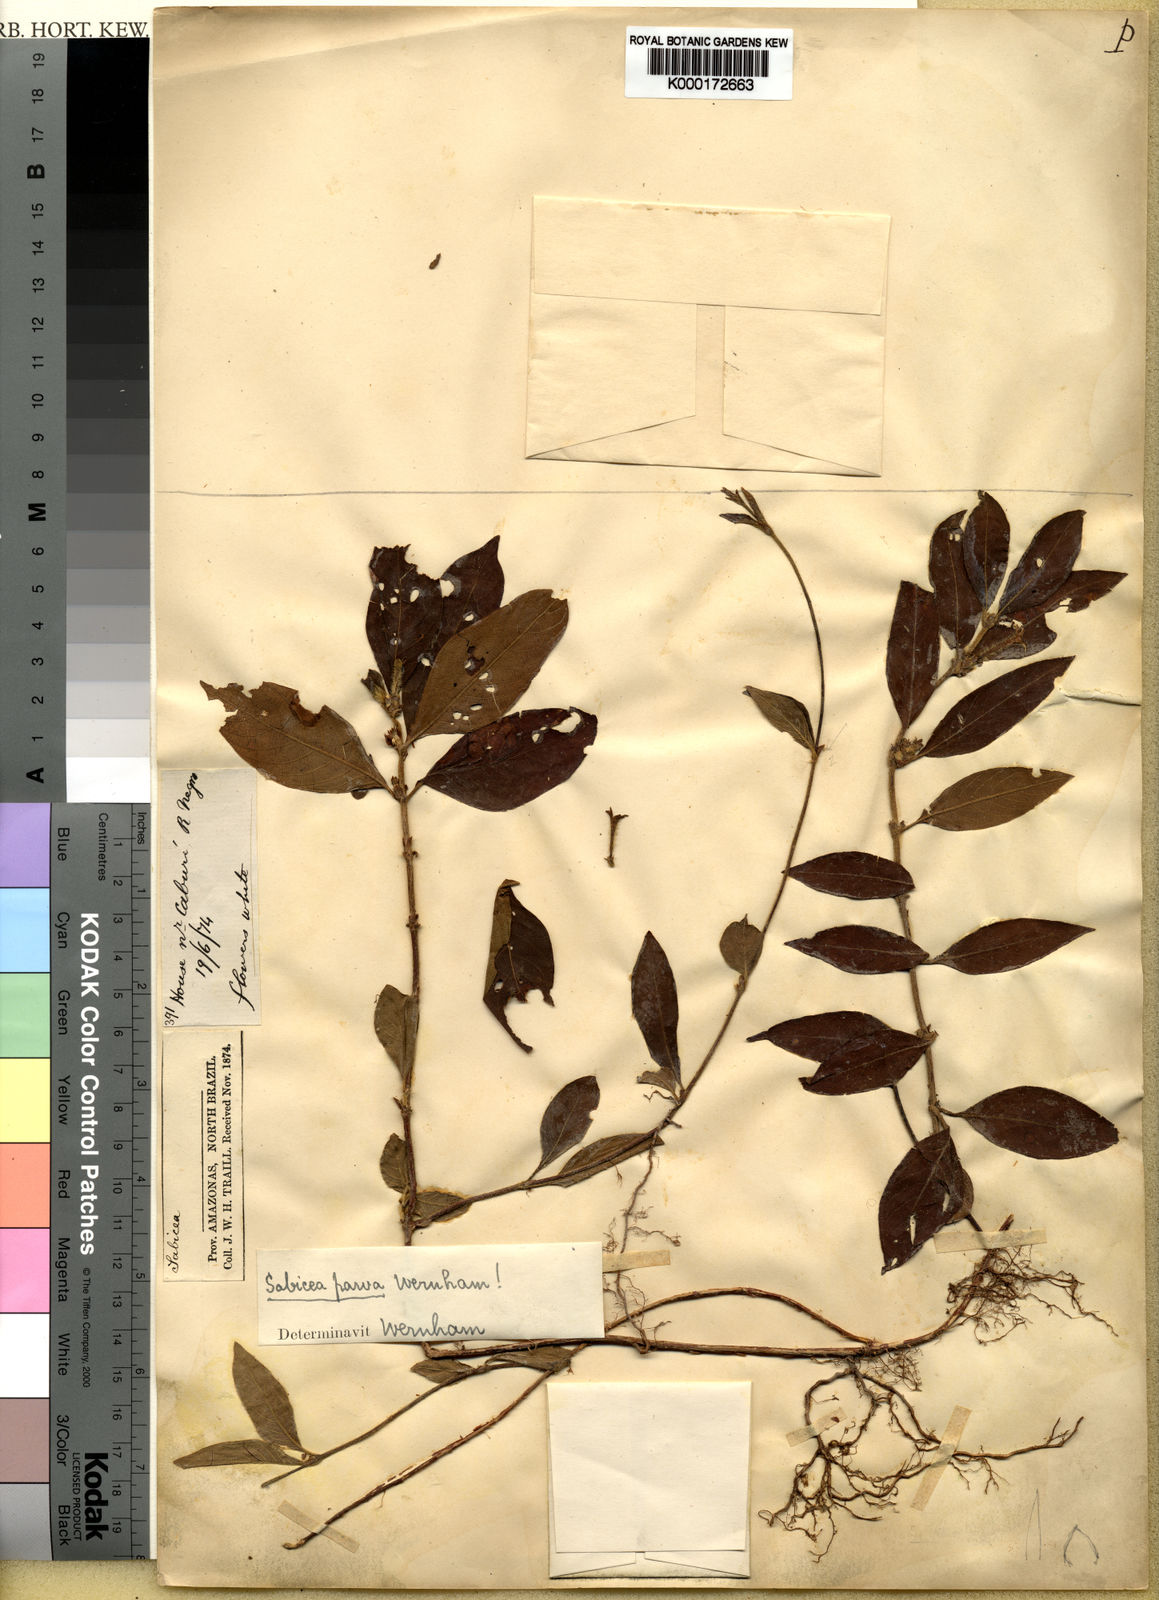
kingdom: Plantae
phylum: Tracheophyta
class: Magnoliopsida
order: Gentianales
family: Rubiaceae
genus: Sabicea
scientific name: Sabicea parva
